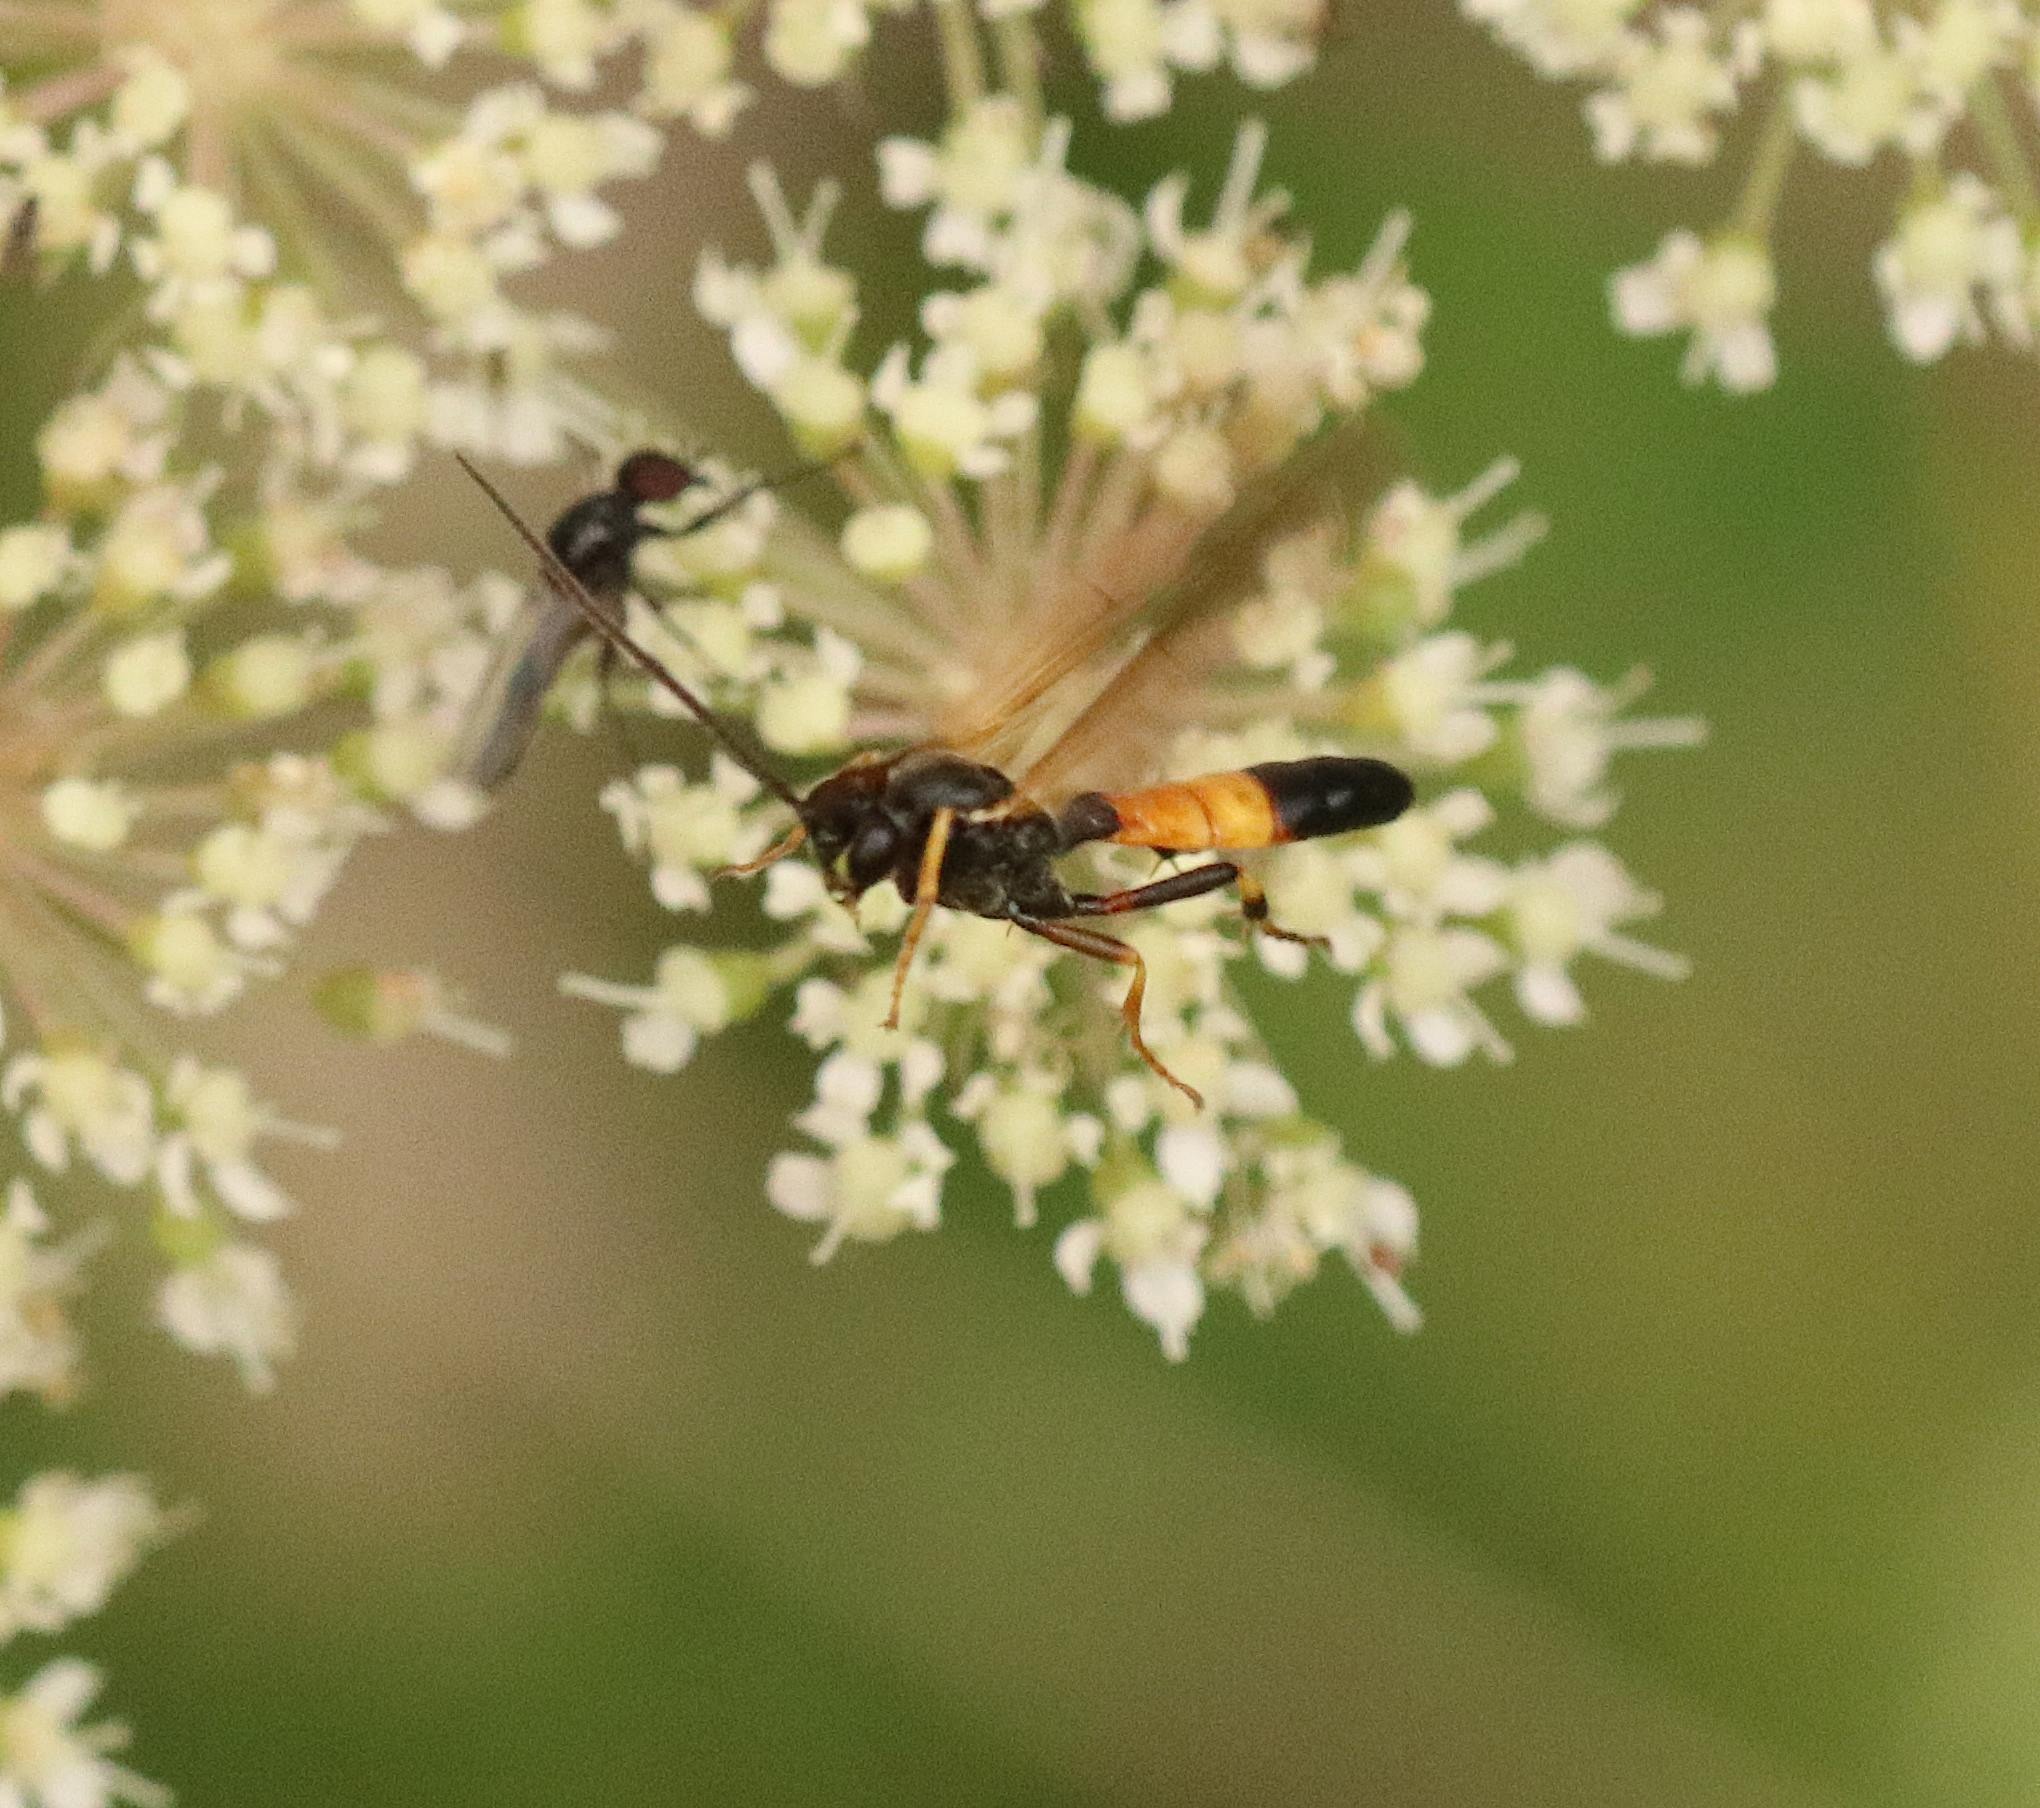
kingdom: Animalia
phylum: Arthropoda
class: Insecta
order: Hymenoptera
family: Ichneumonidae
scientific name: Ichneumonidae
